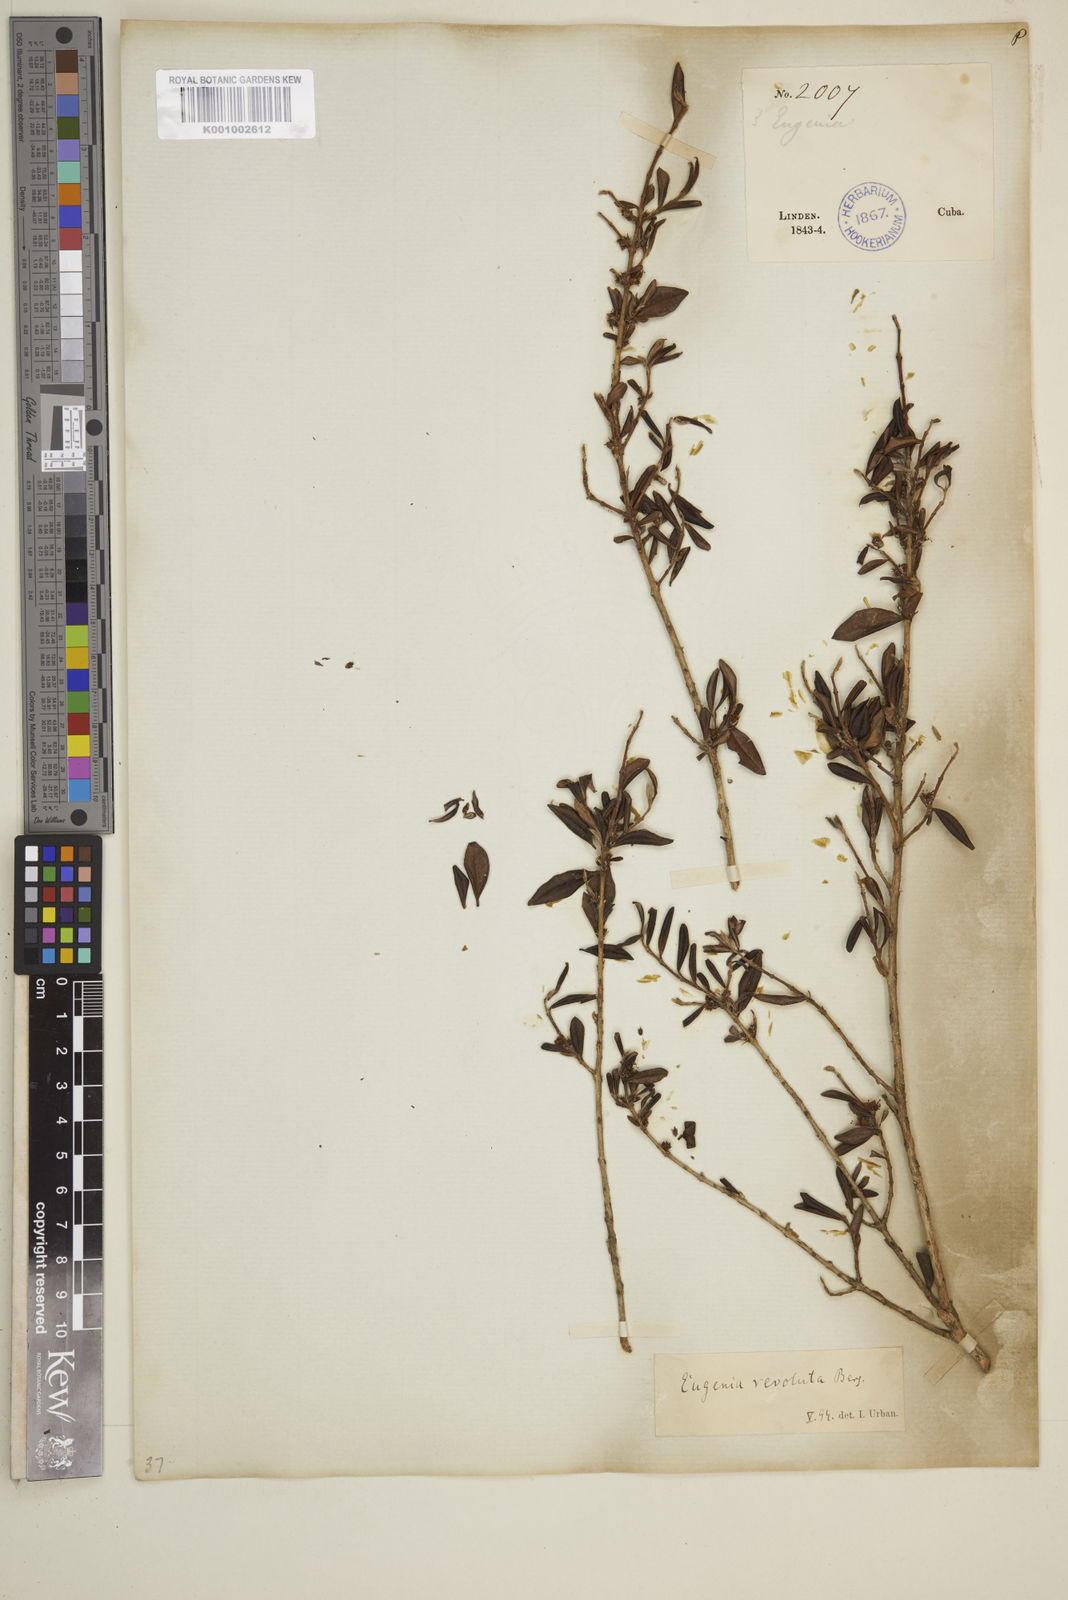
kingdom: Plantae
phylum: Tracheophyta
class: Magnoliopsida
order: Myrtales
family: Myrtaceae
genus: Eugenia
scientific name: Eugenia oxysepala
